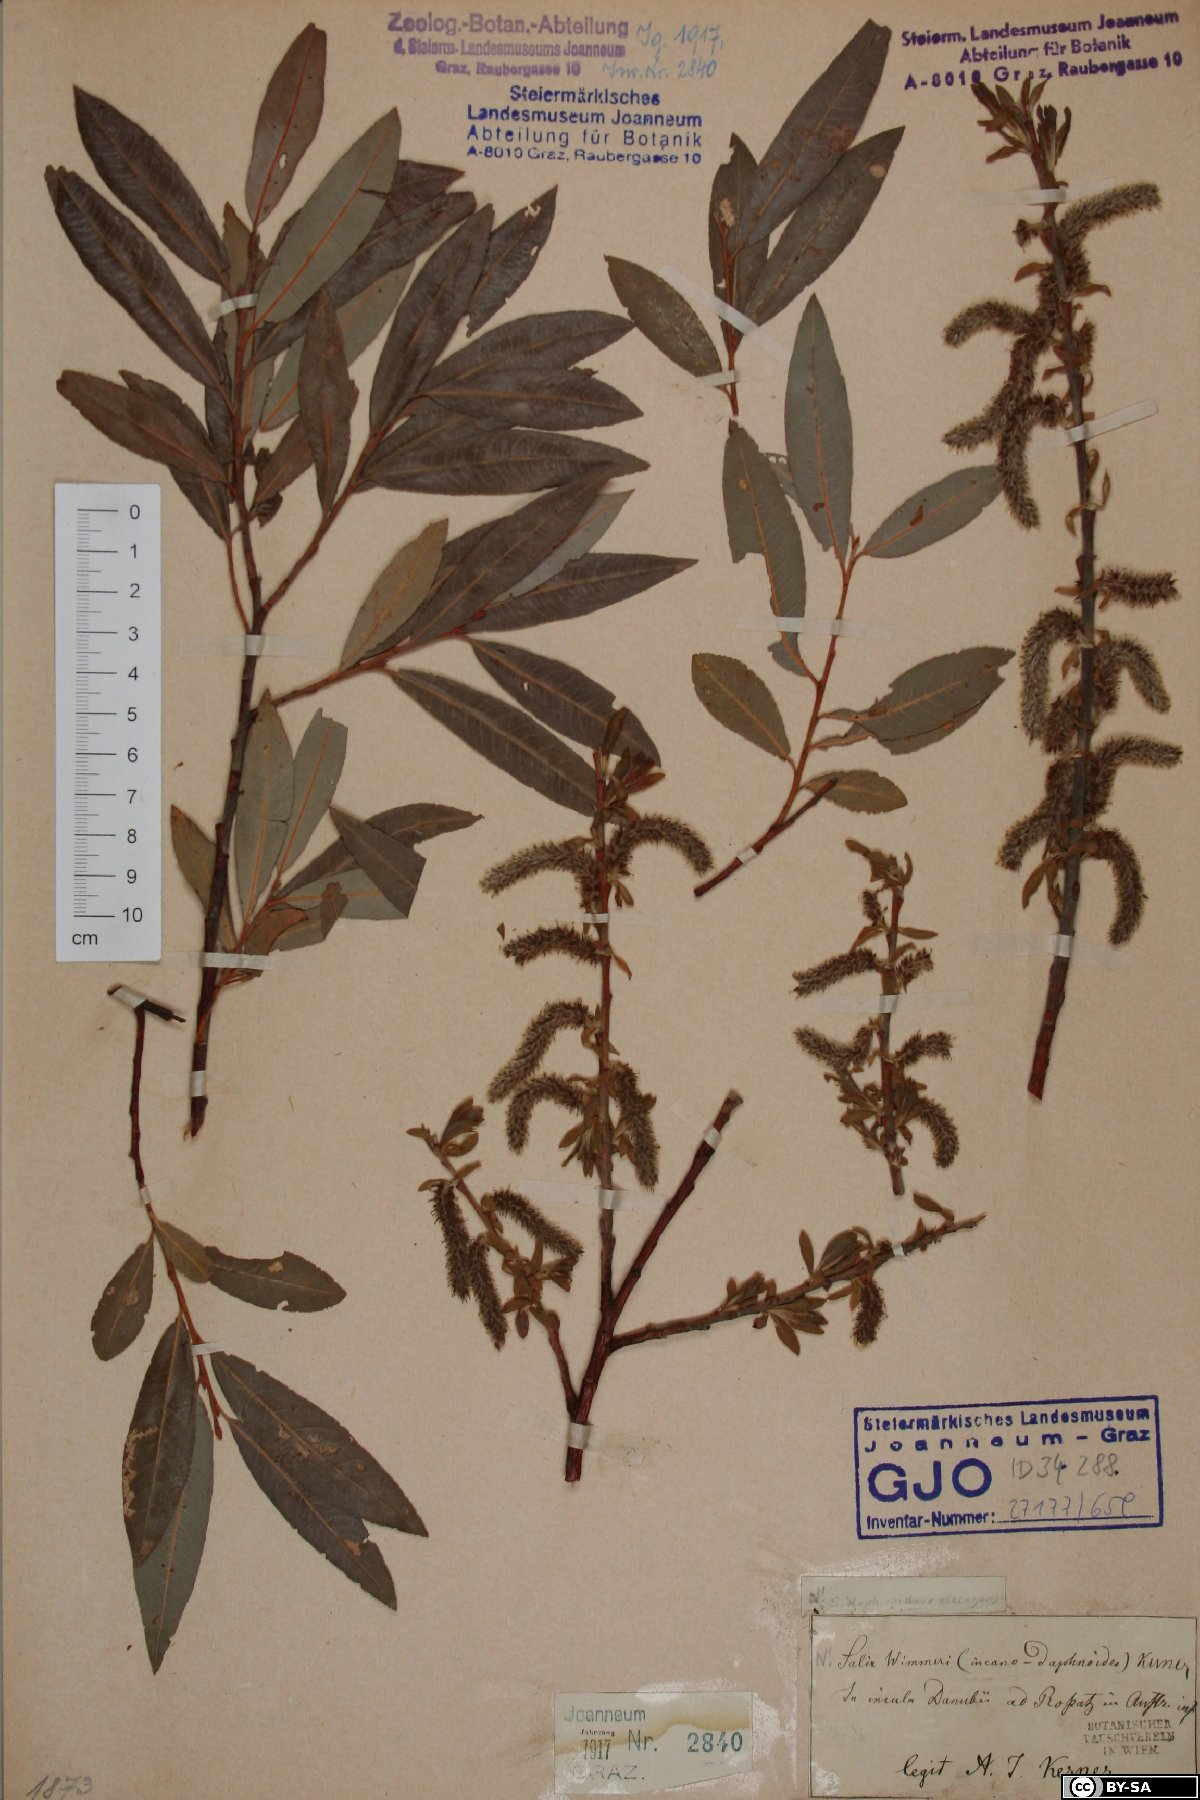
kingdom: Plantae
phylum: Tracheophyta
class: Magnoliopsida
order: Malpighiales
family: Salicaceae
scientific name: Salicaceae
